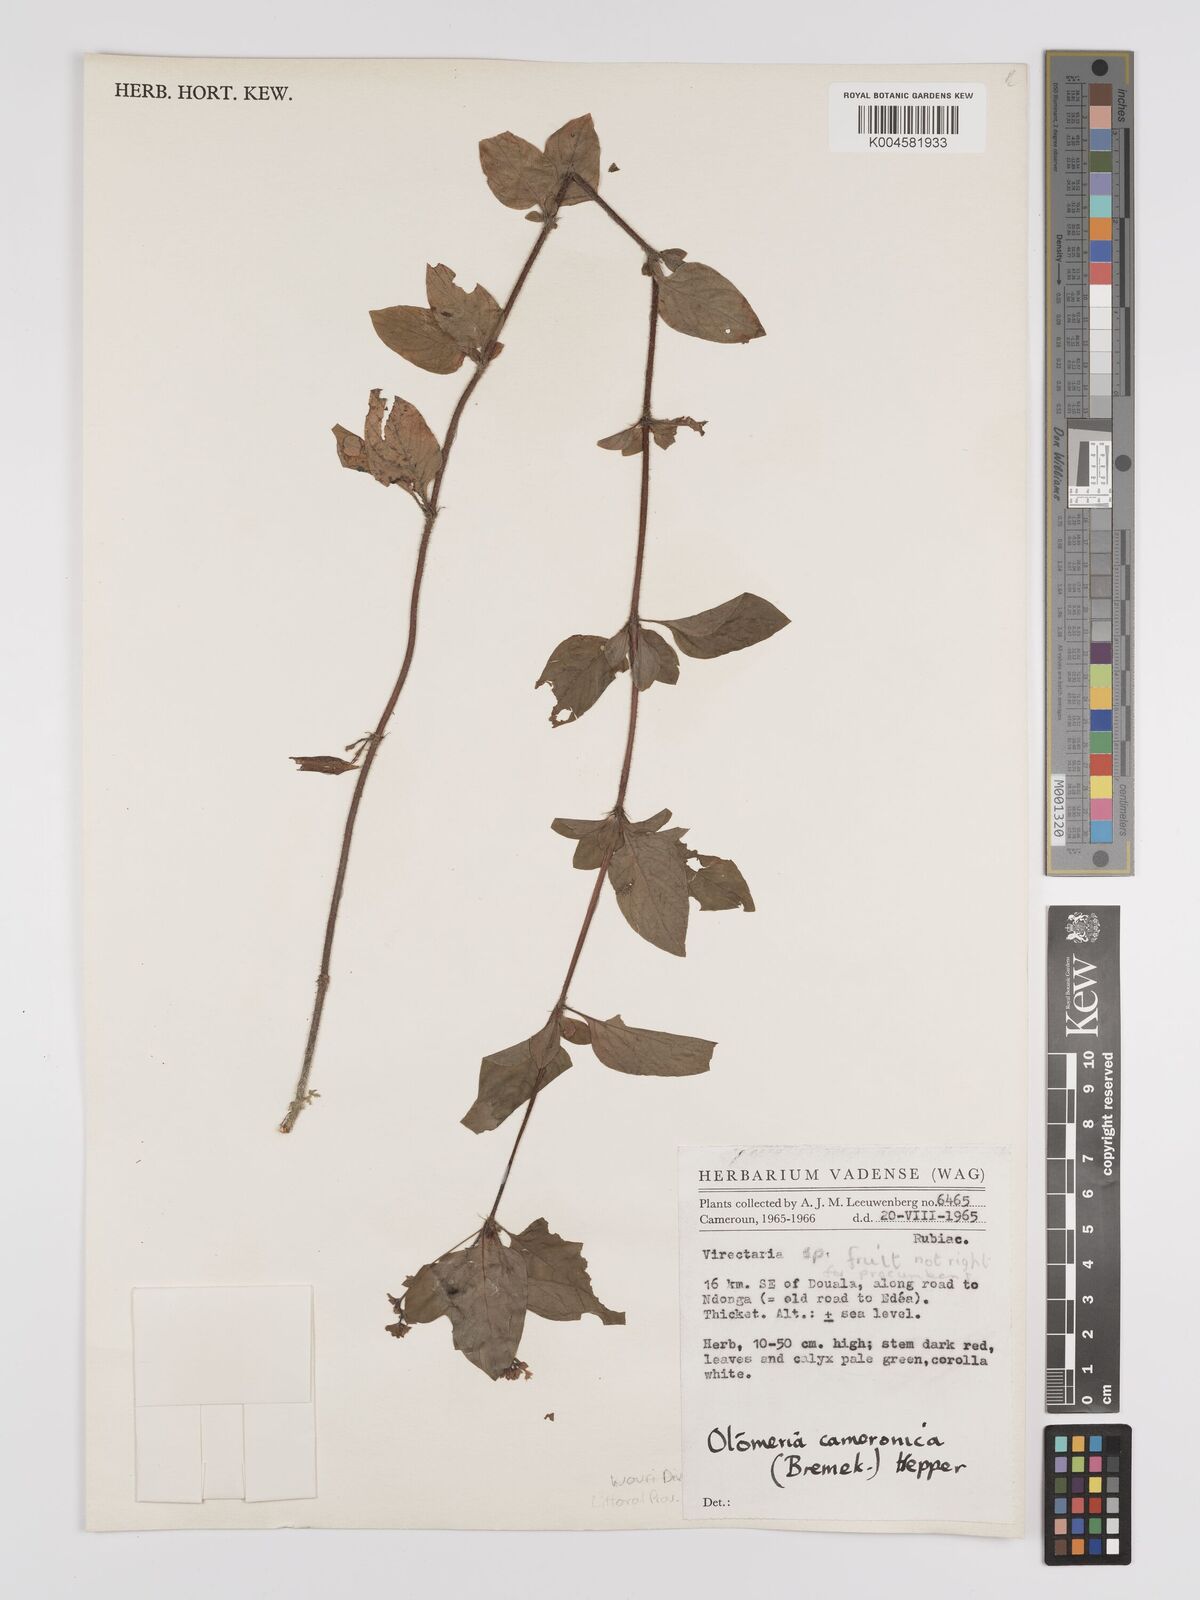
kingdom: Plantae
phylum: Tracheophyta
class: Magnoliopsida
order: Gentianales
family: Rubiaceae
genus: Otomeria
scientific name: Otomeria cameronica
